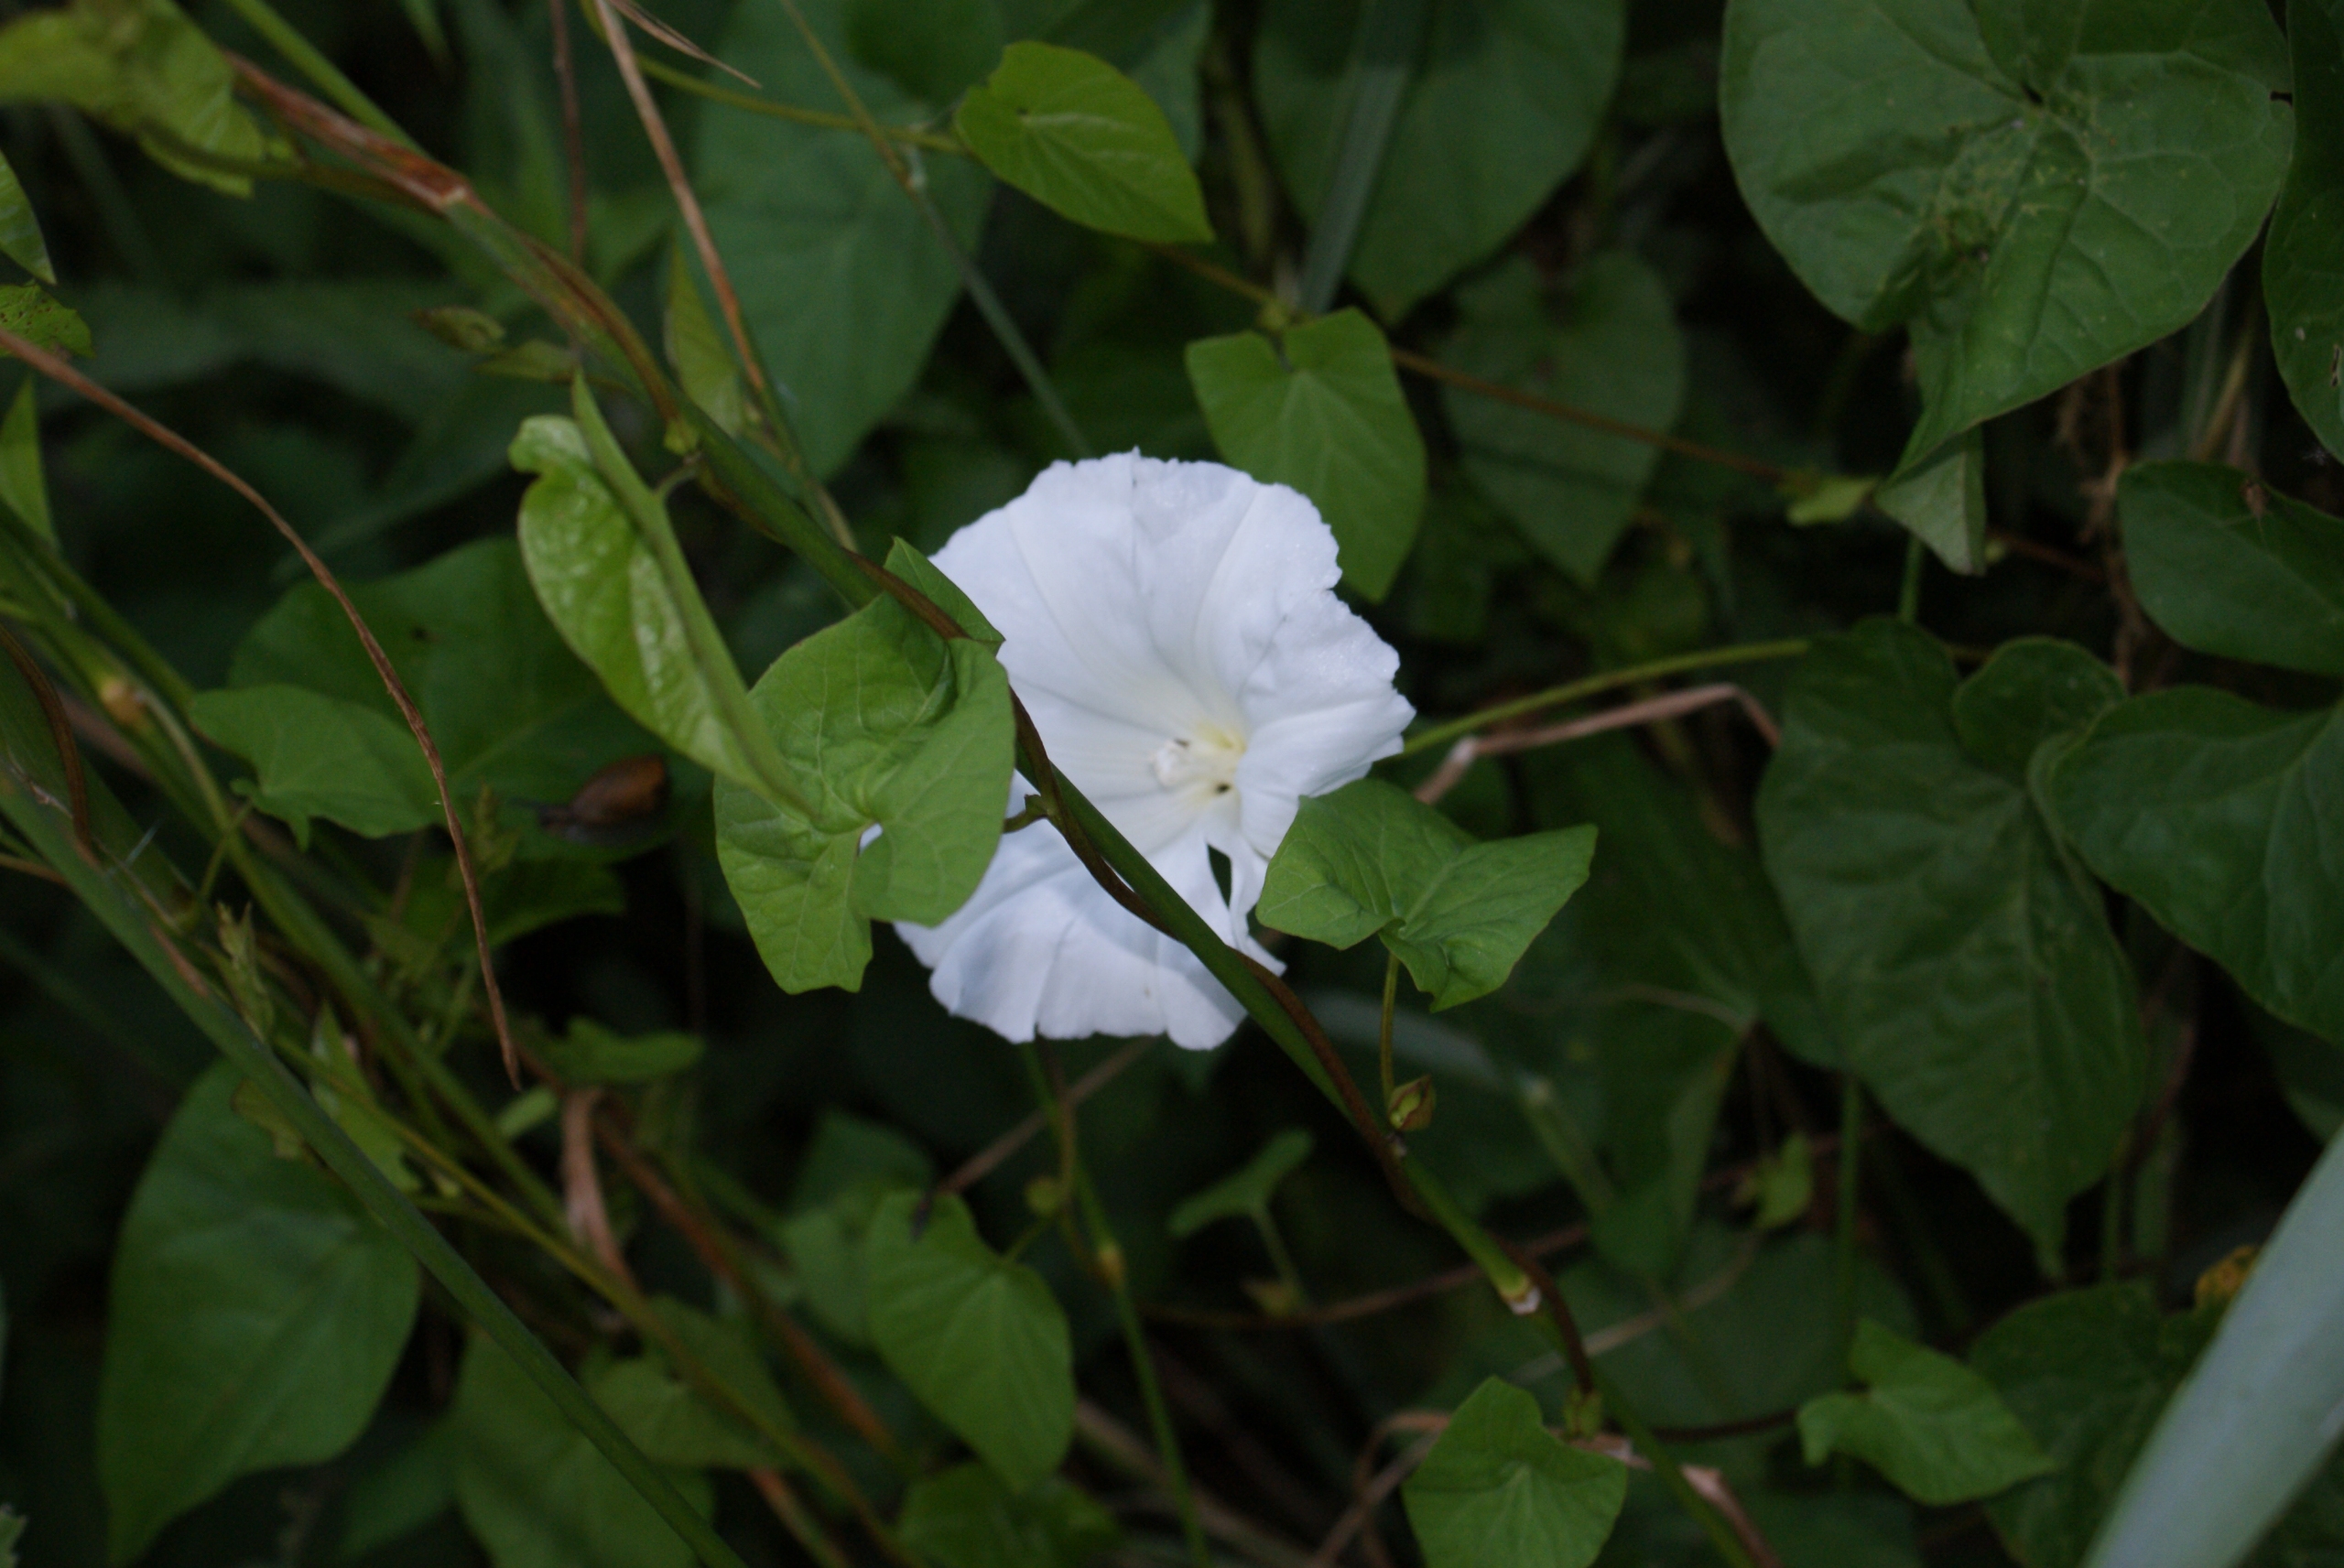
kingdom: Plantae
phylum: Tracheophyta
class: Magnoliopsida
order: Solanales
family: Convolvulaceae
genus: Calystegia
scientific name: Calystegia sepium
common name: Gærde-snerle
